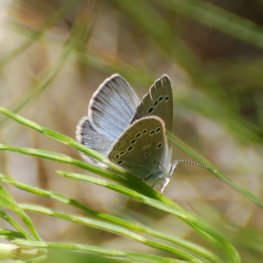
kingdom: Animalia
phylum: Arthropoda
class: Insecta
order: Lepidoptera
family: Lycaenidae
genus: Glaucopsyche
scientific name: Glaucopsyche lygdamus
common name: Silvery Blue
